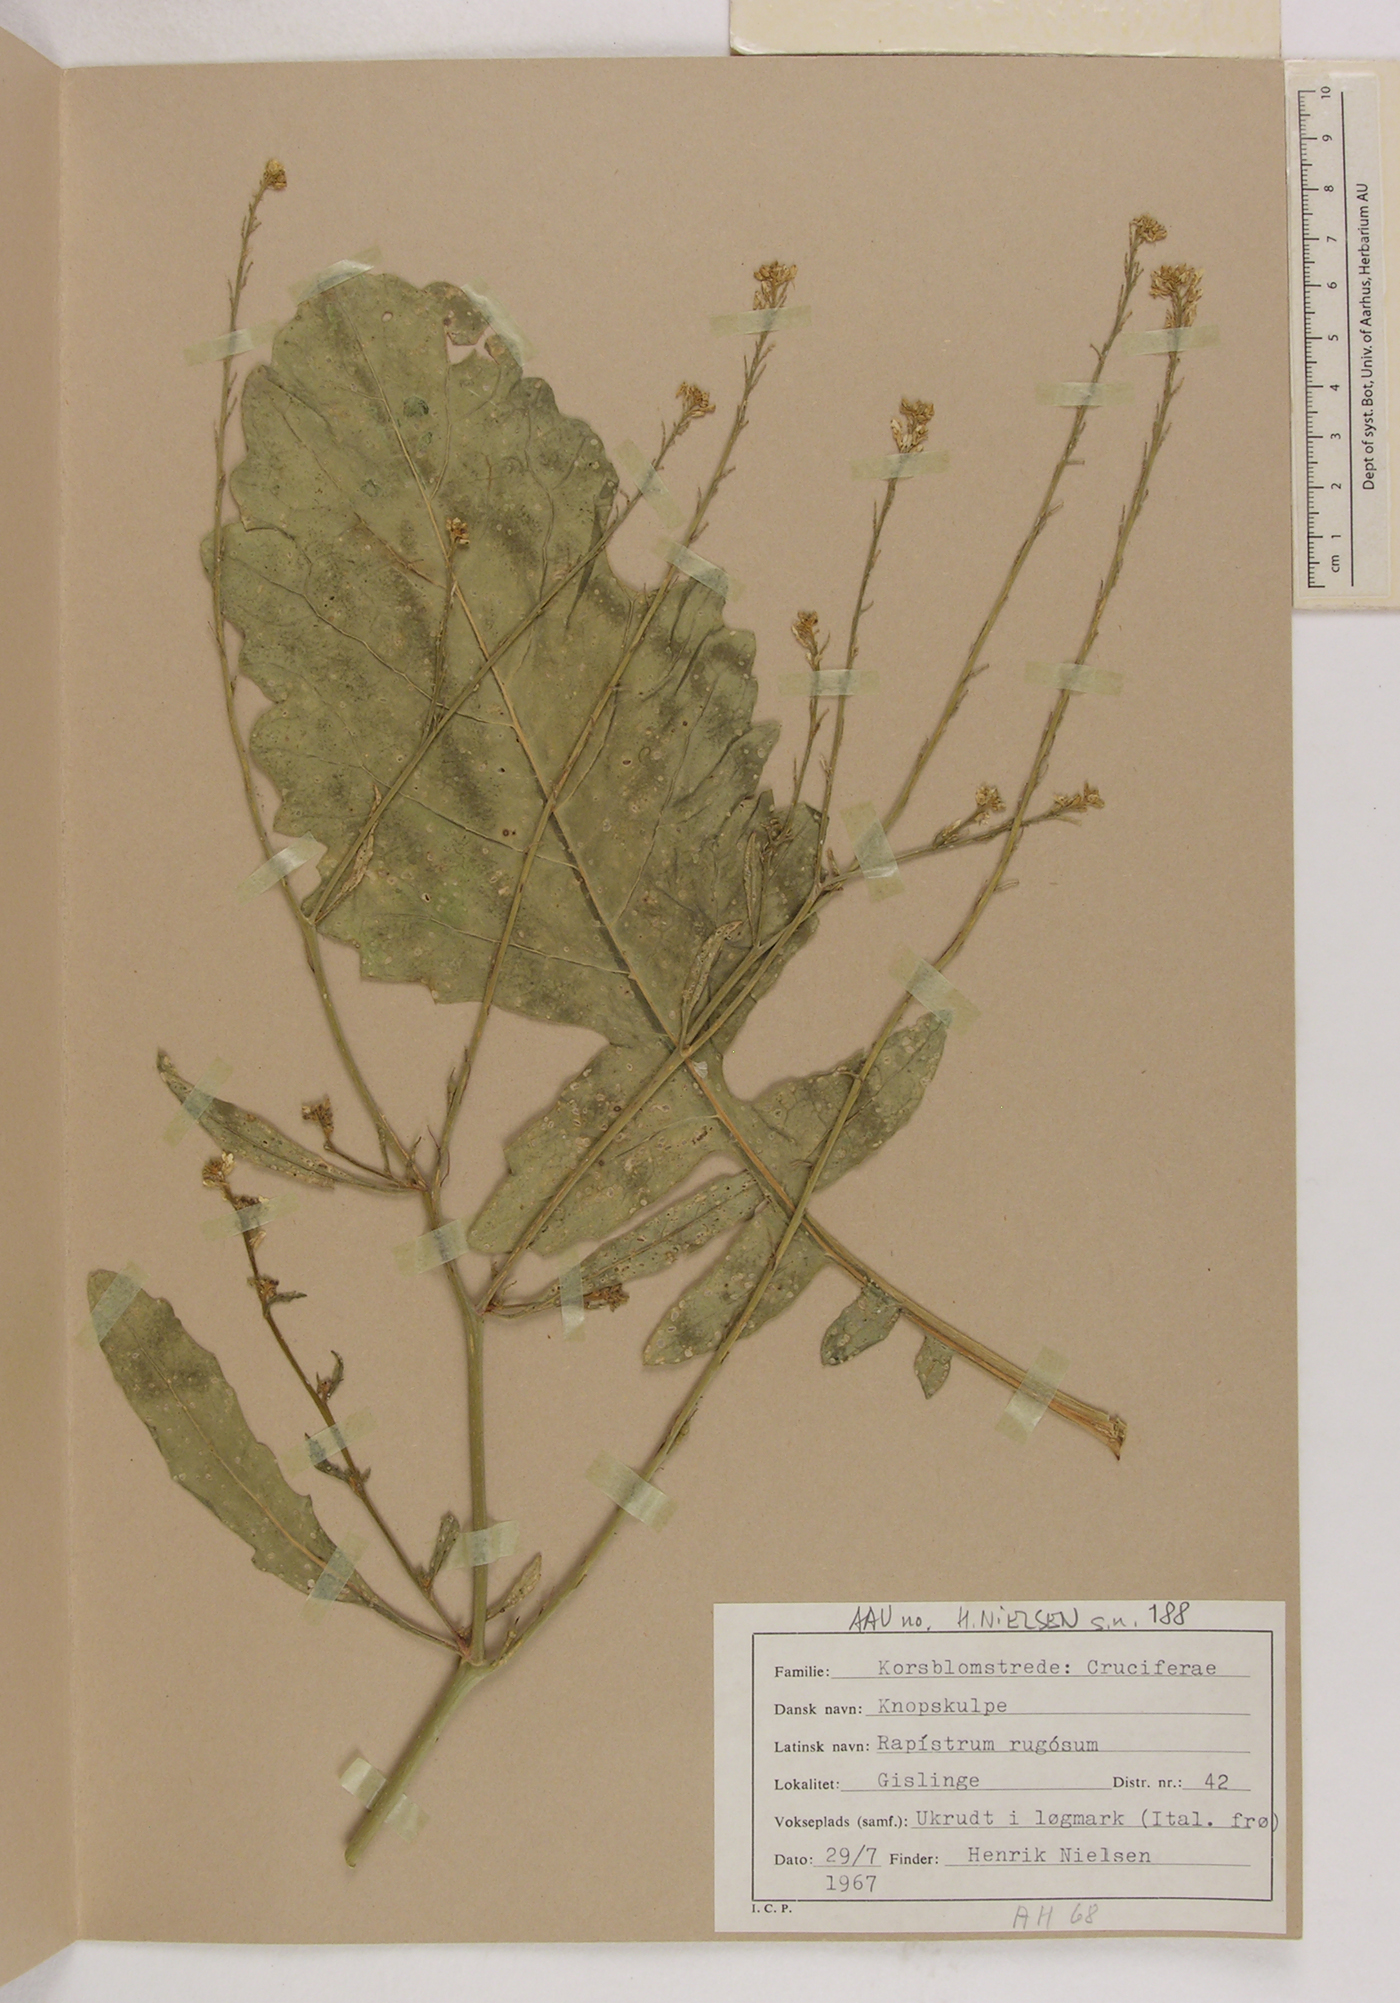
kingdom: Plantae
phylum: Tracheophyta
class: Magnoliopsida
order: Brassicales
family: Brassicaceae
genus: Rapistrum
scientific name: Rapistrum rugosum
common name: Annual bastardcabbage
